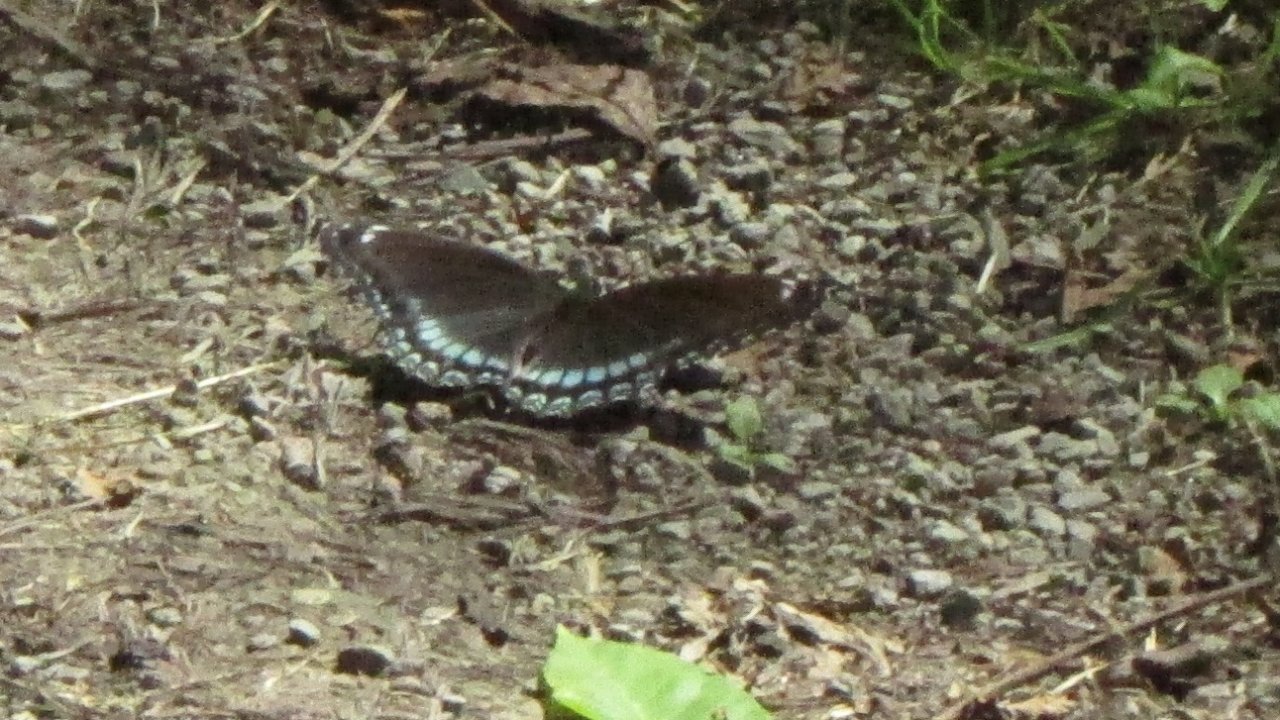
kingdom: Animalia
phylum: Arthropoda
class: Insecta
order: Lepidoptera
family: Nymphalidae
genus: Limenitis
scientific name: Limenitis astyanax
